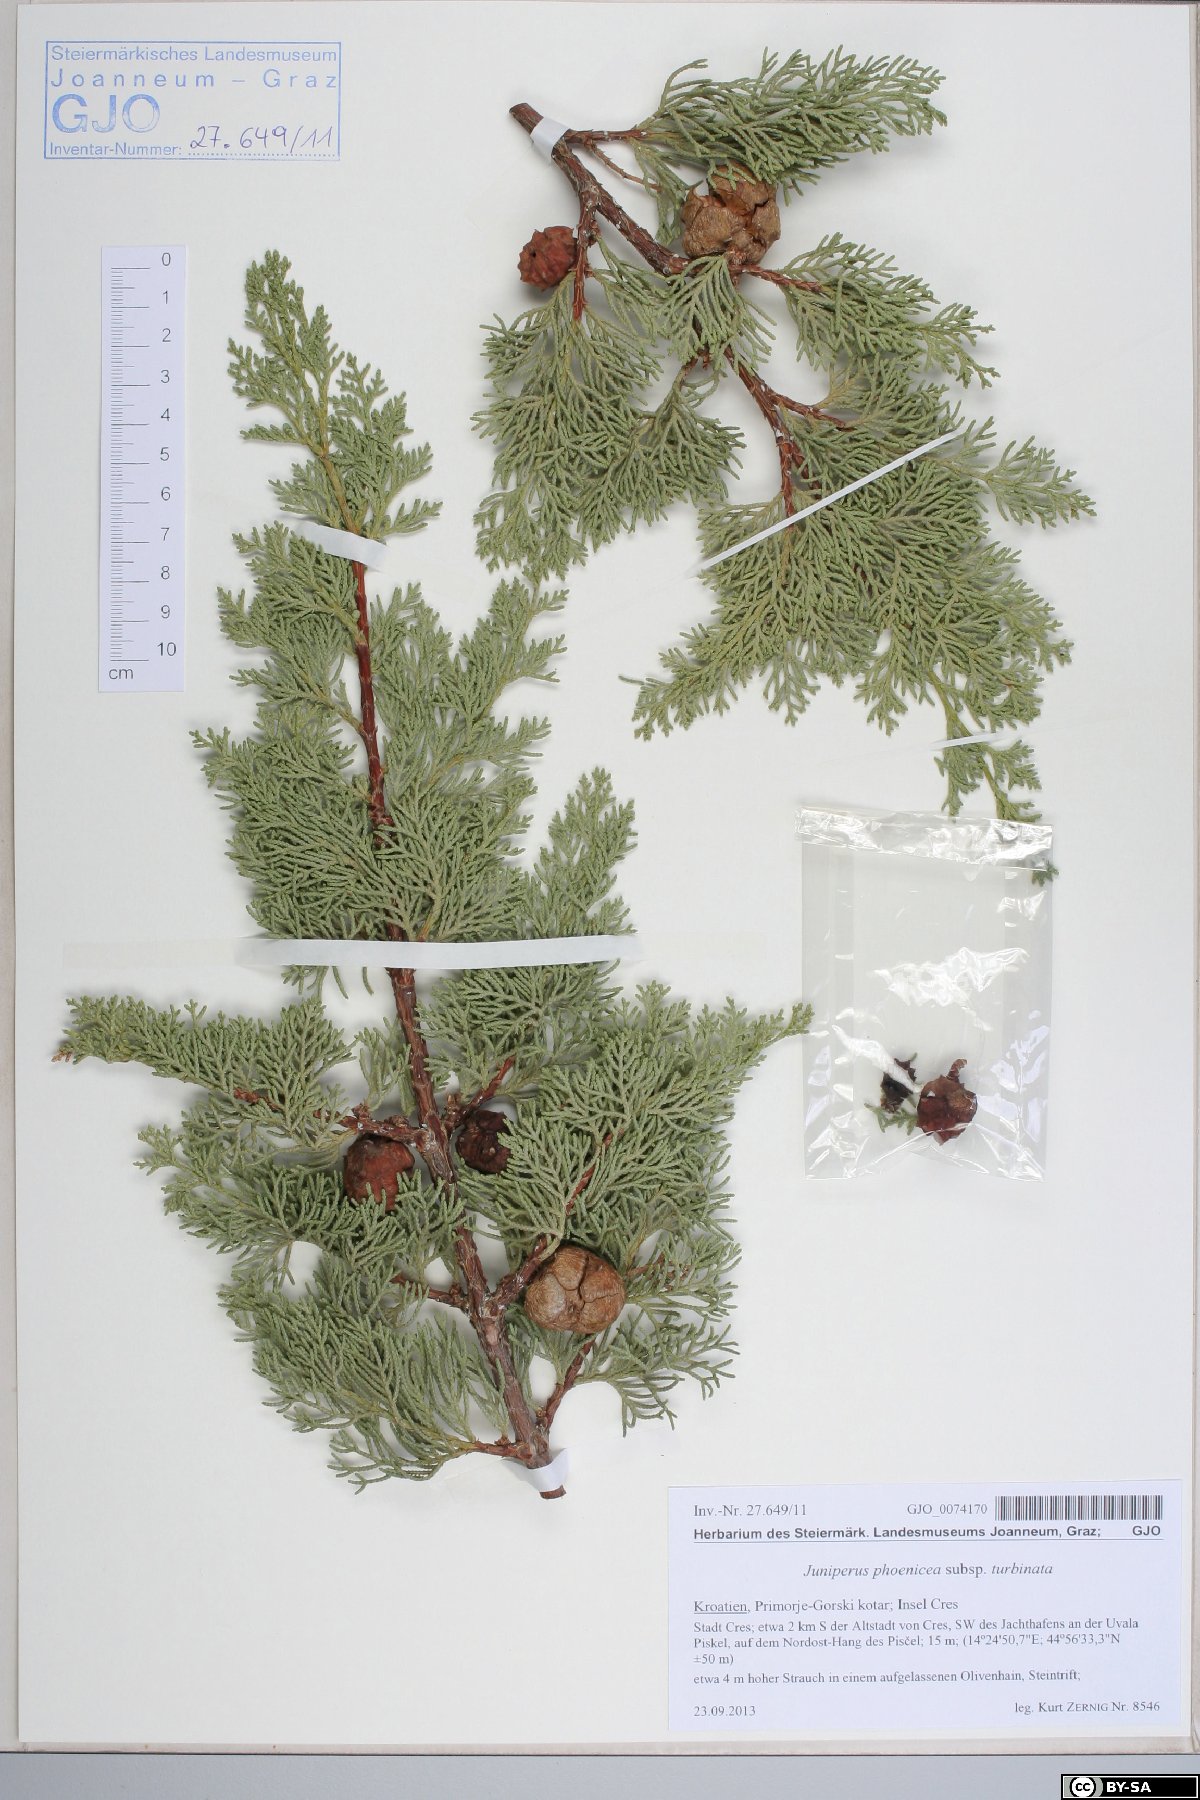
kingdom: Plantae
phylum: Tracheophyta
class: Pinopsida
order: Pinales
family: Cupressaceae
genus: Juniperus
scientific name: Juniperus phoenicea
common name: Phoenician juniper
